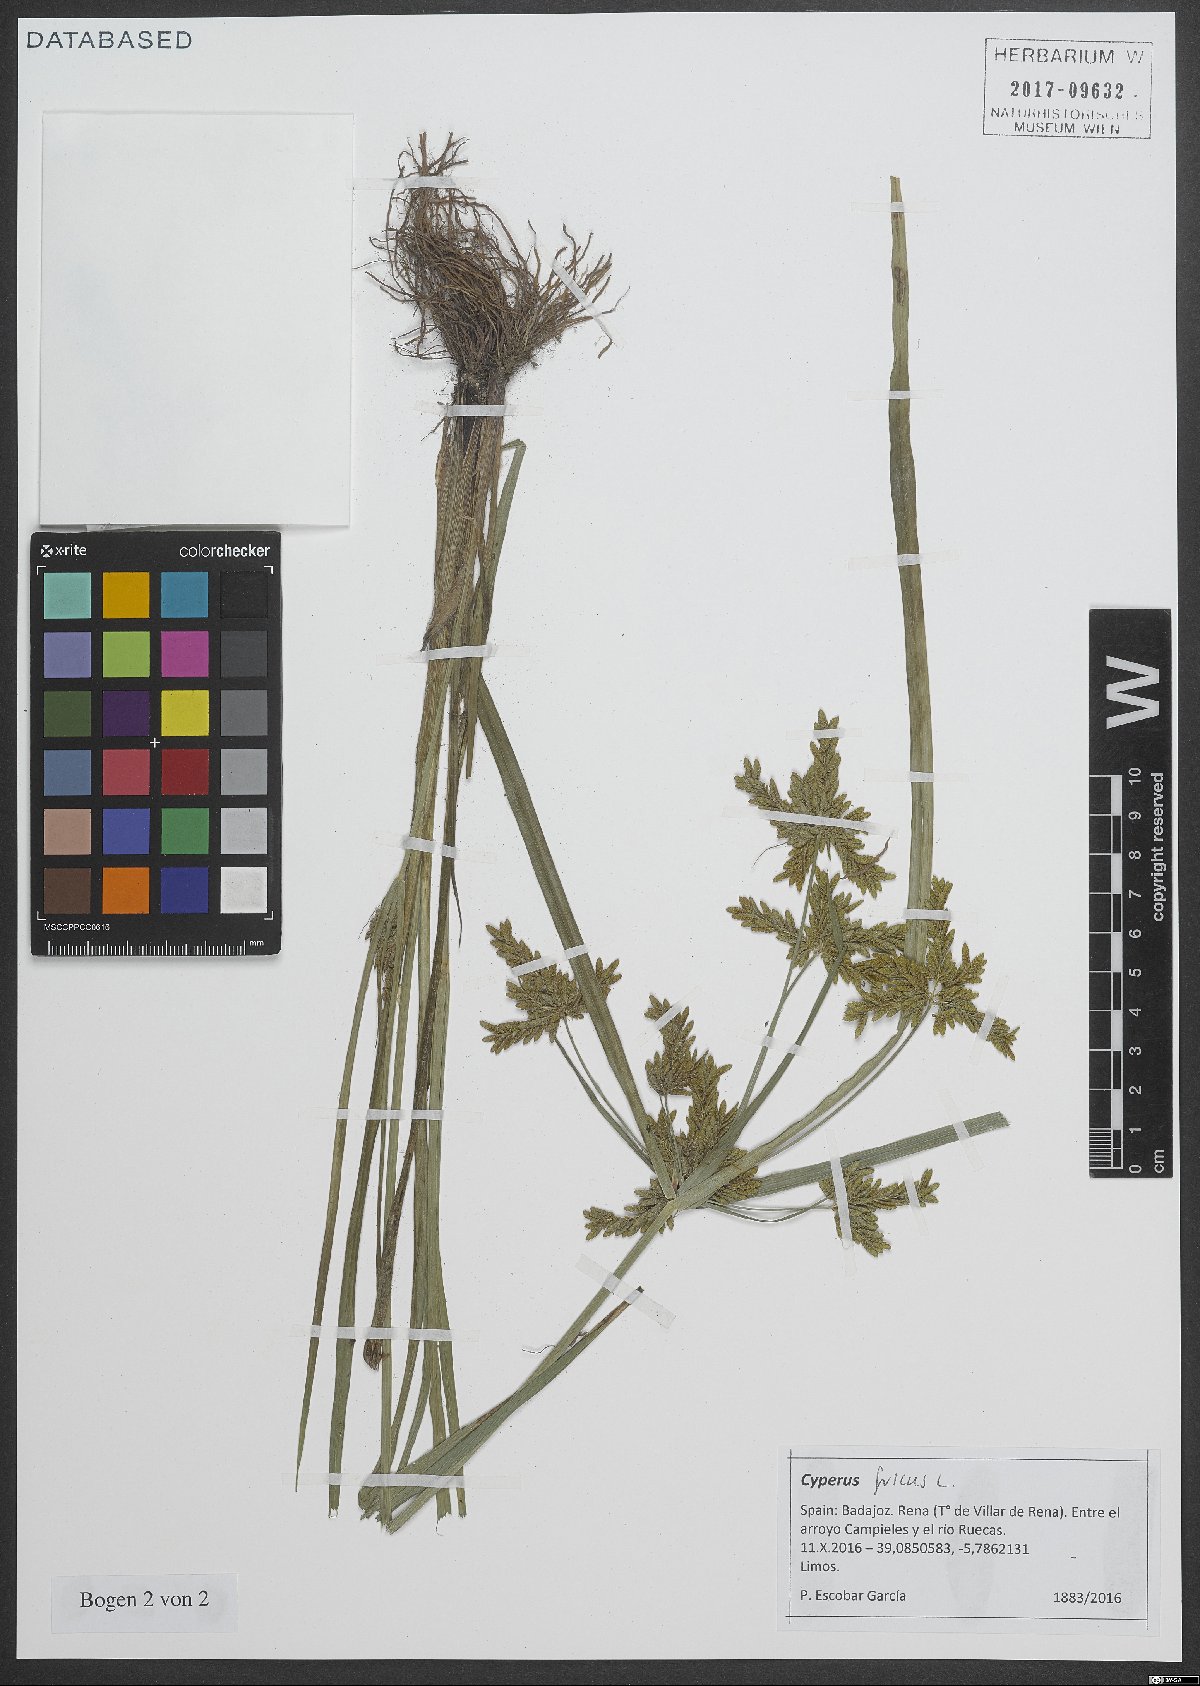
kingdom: Plantae
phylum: Tracheophyta
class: Liliopsida
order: Poales
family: Cyperaceae
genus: Cyperus
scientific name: Cyperus fuscus
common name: Brown galingale
